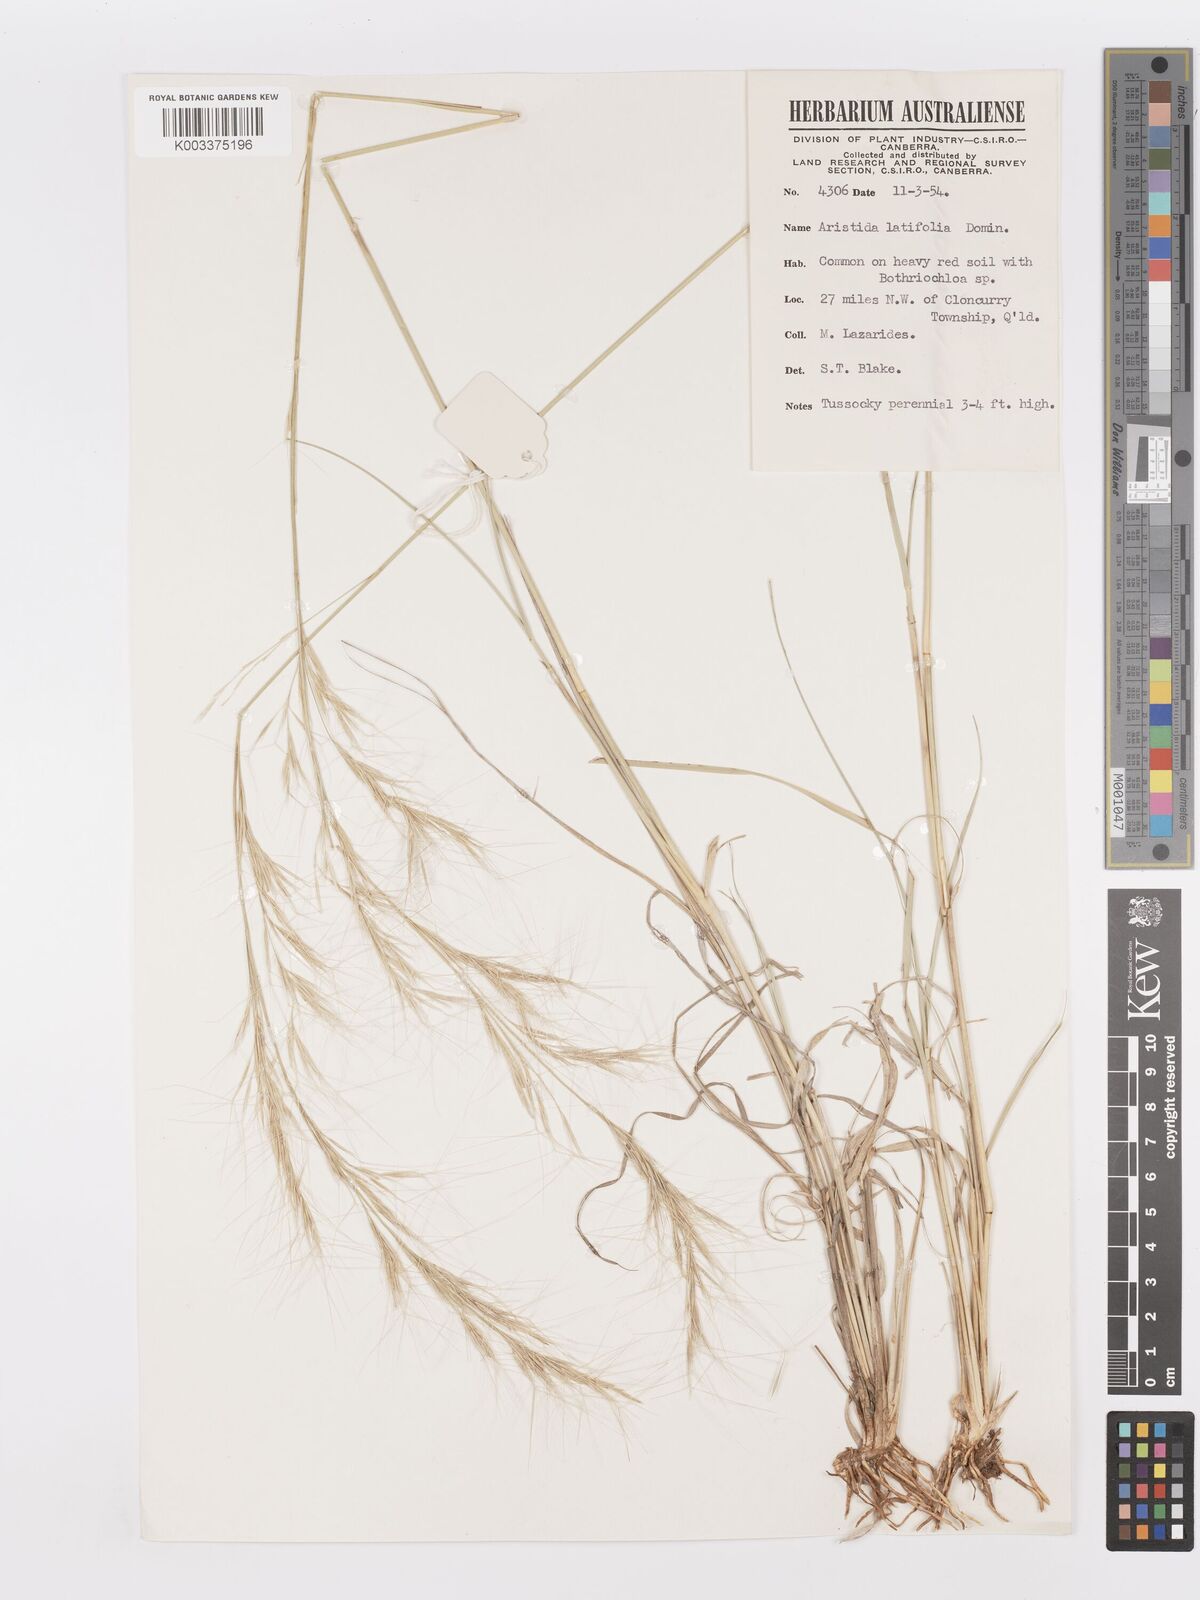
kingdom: Plantae
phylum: Tracheophyta
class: Liliopsida
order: Poales
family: Poaceae
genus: Aristida
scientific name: Aristida latifolia
